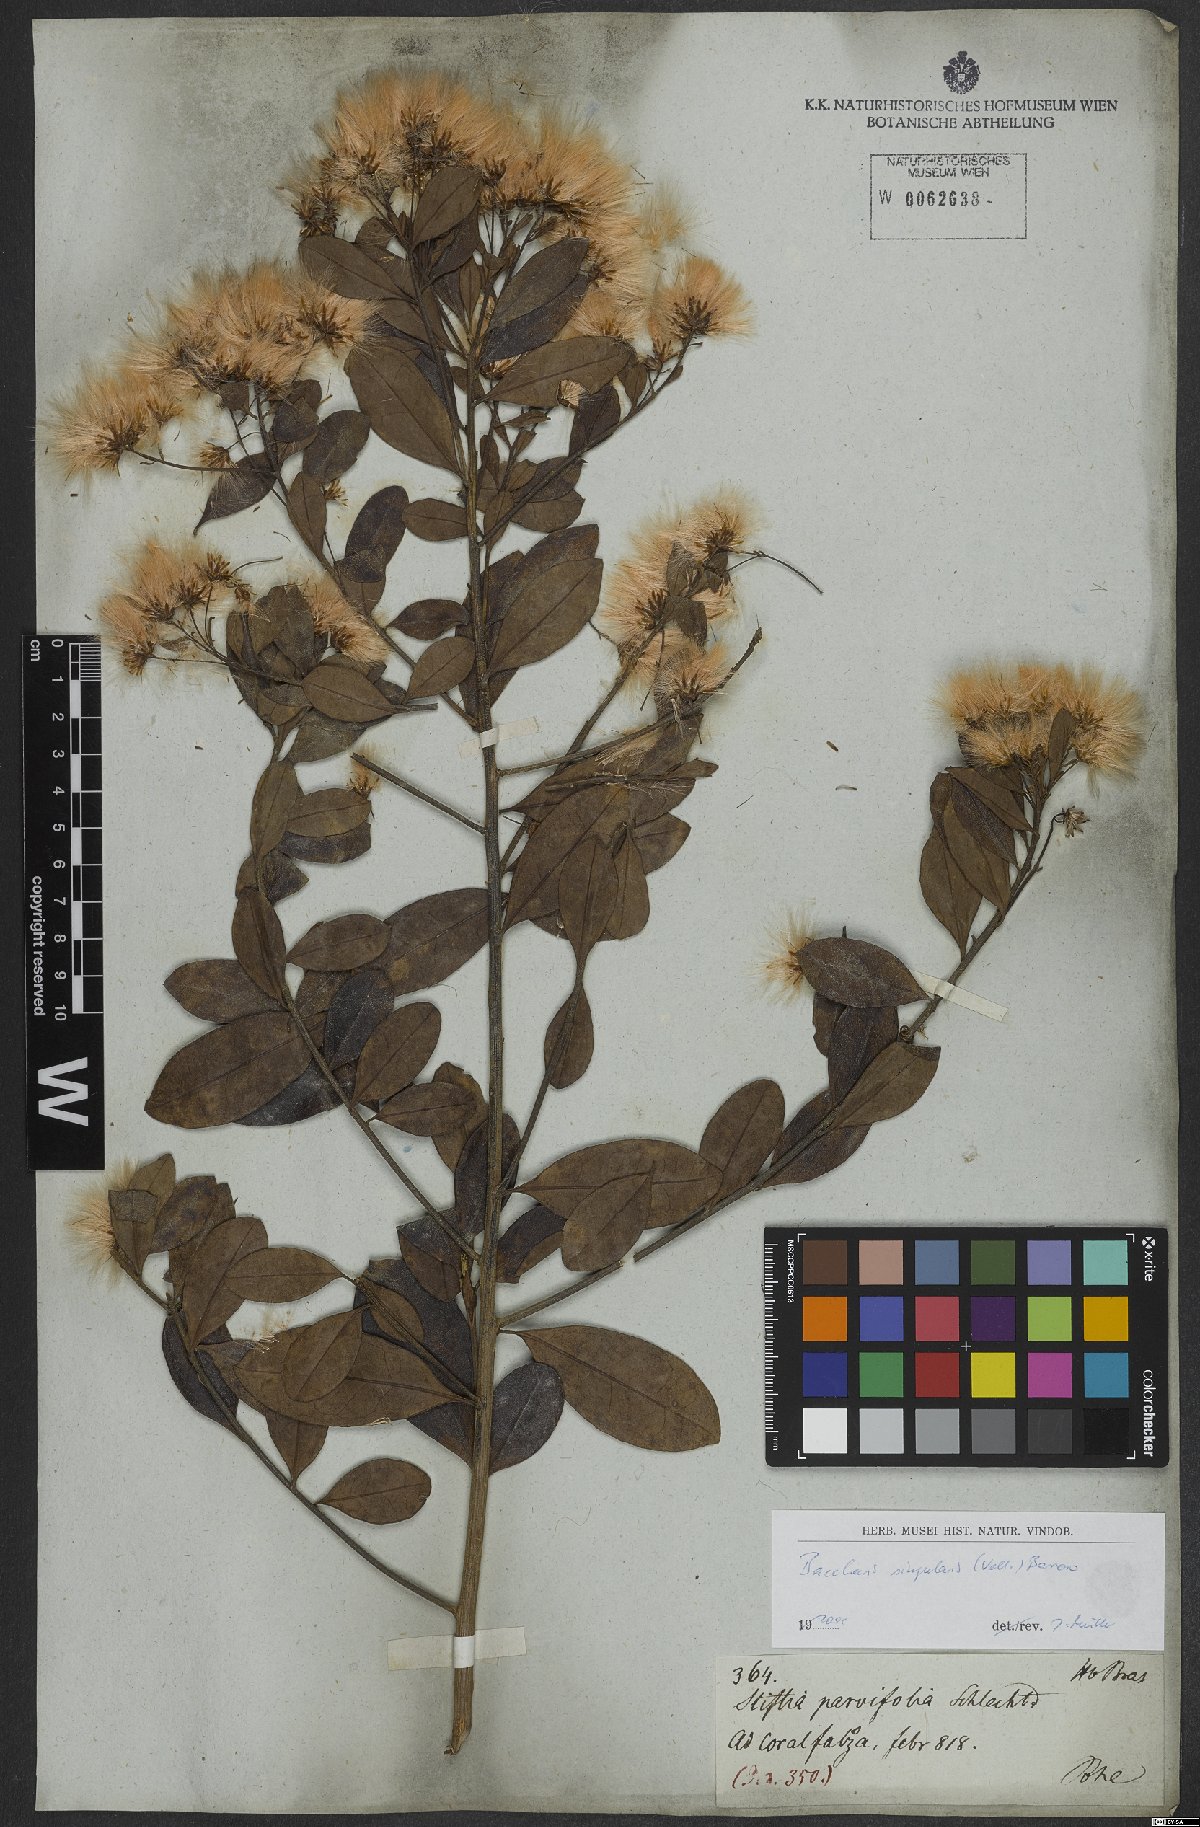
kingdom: Plantae
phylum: Tracheophyta
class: Magnoliopsida
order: Asterales
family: Asteraceae
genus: Baccharis
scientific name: Baccharis singularis
